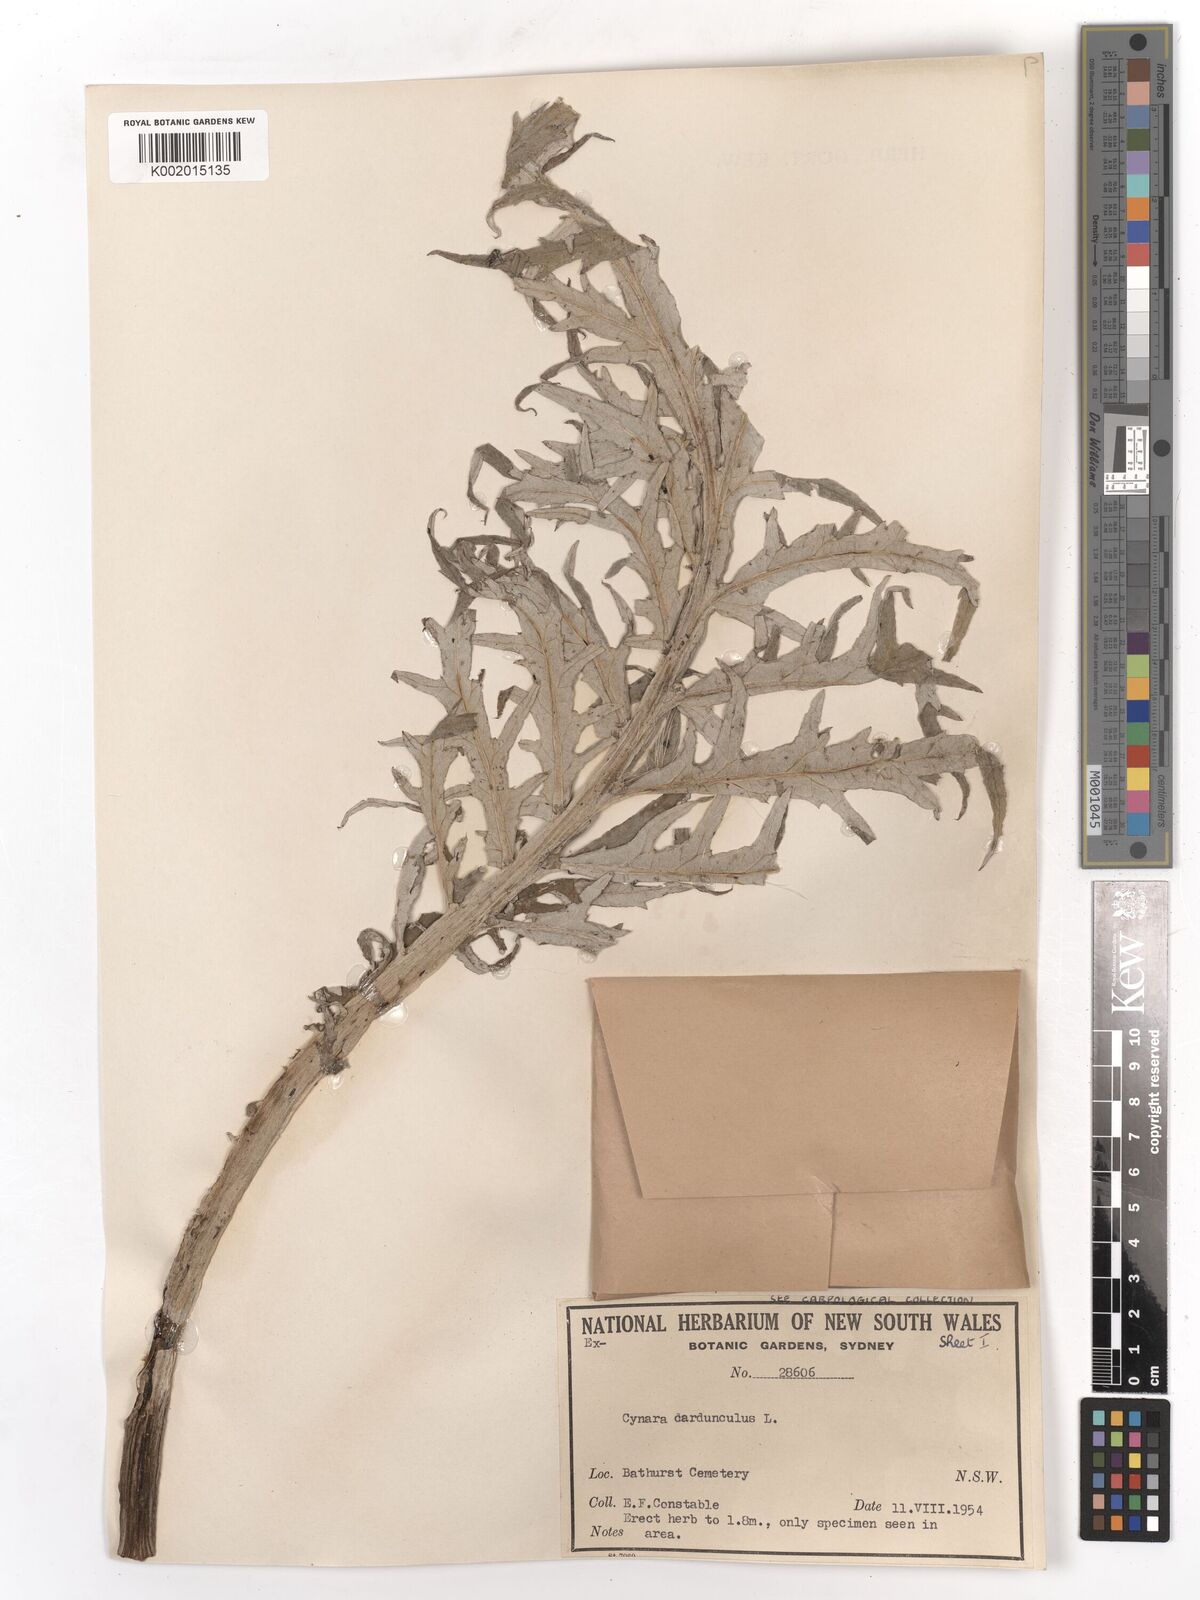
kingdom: Plantae
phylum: Tracheophyta
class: Magnoliopsida
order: Asterales
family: Asteraceae
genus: Cynara
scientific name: Cynara cardunculus
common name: Globe artichoke
